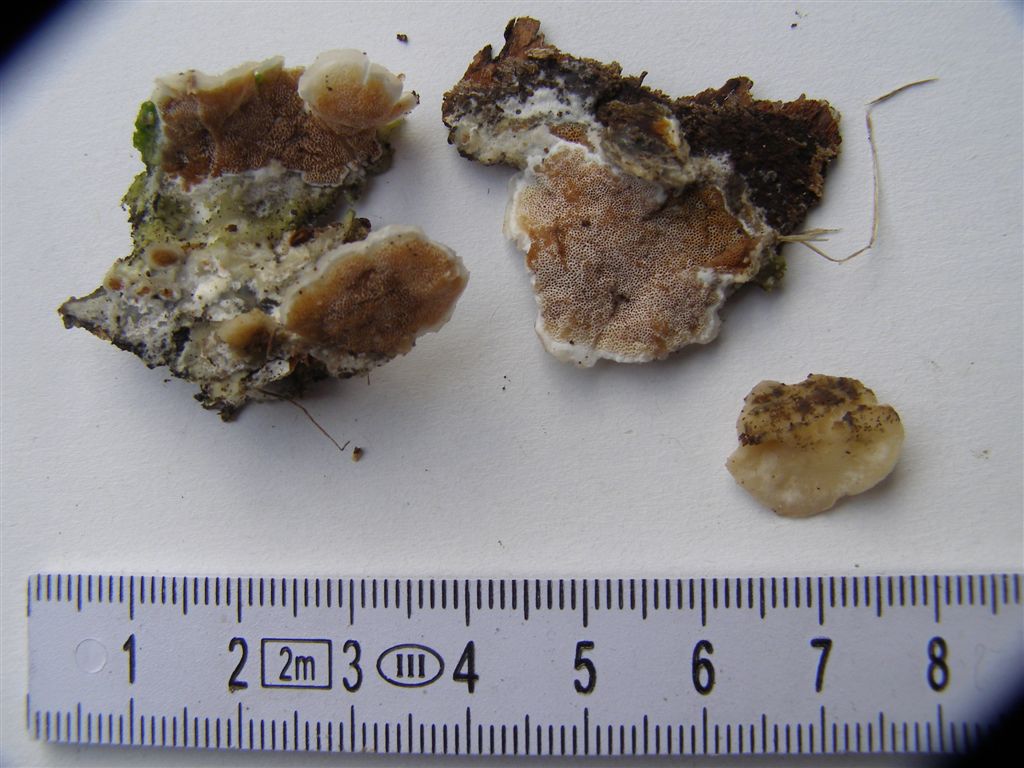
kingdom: Fungi
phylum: Basidiomycota
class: Agaricomycetes
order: Polyporales
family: Irpicaceae
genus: Vitreoporus
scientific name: Vitreoporus dichrous
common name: tofarvet foldporesvamp
